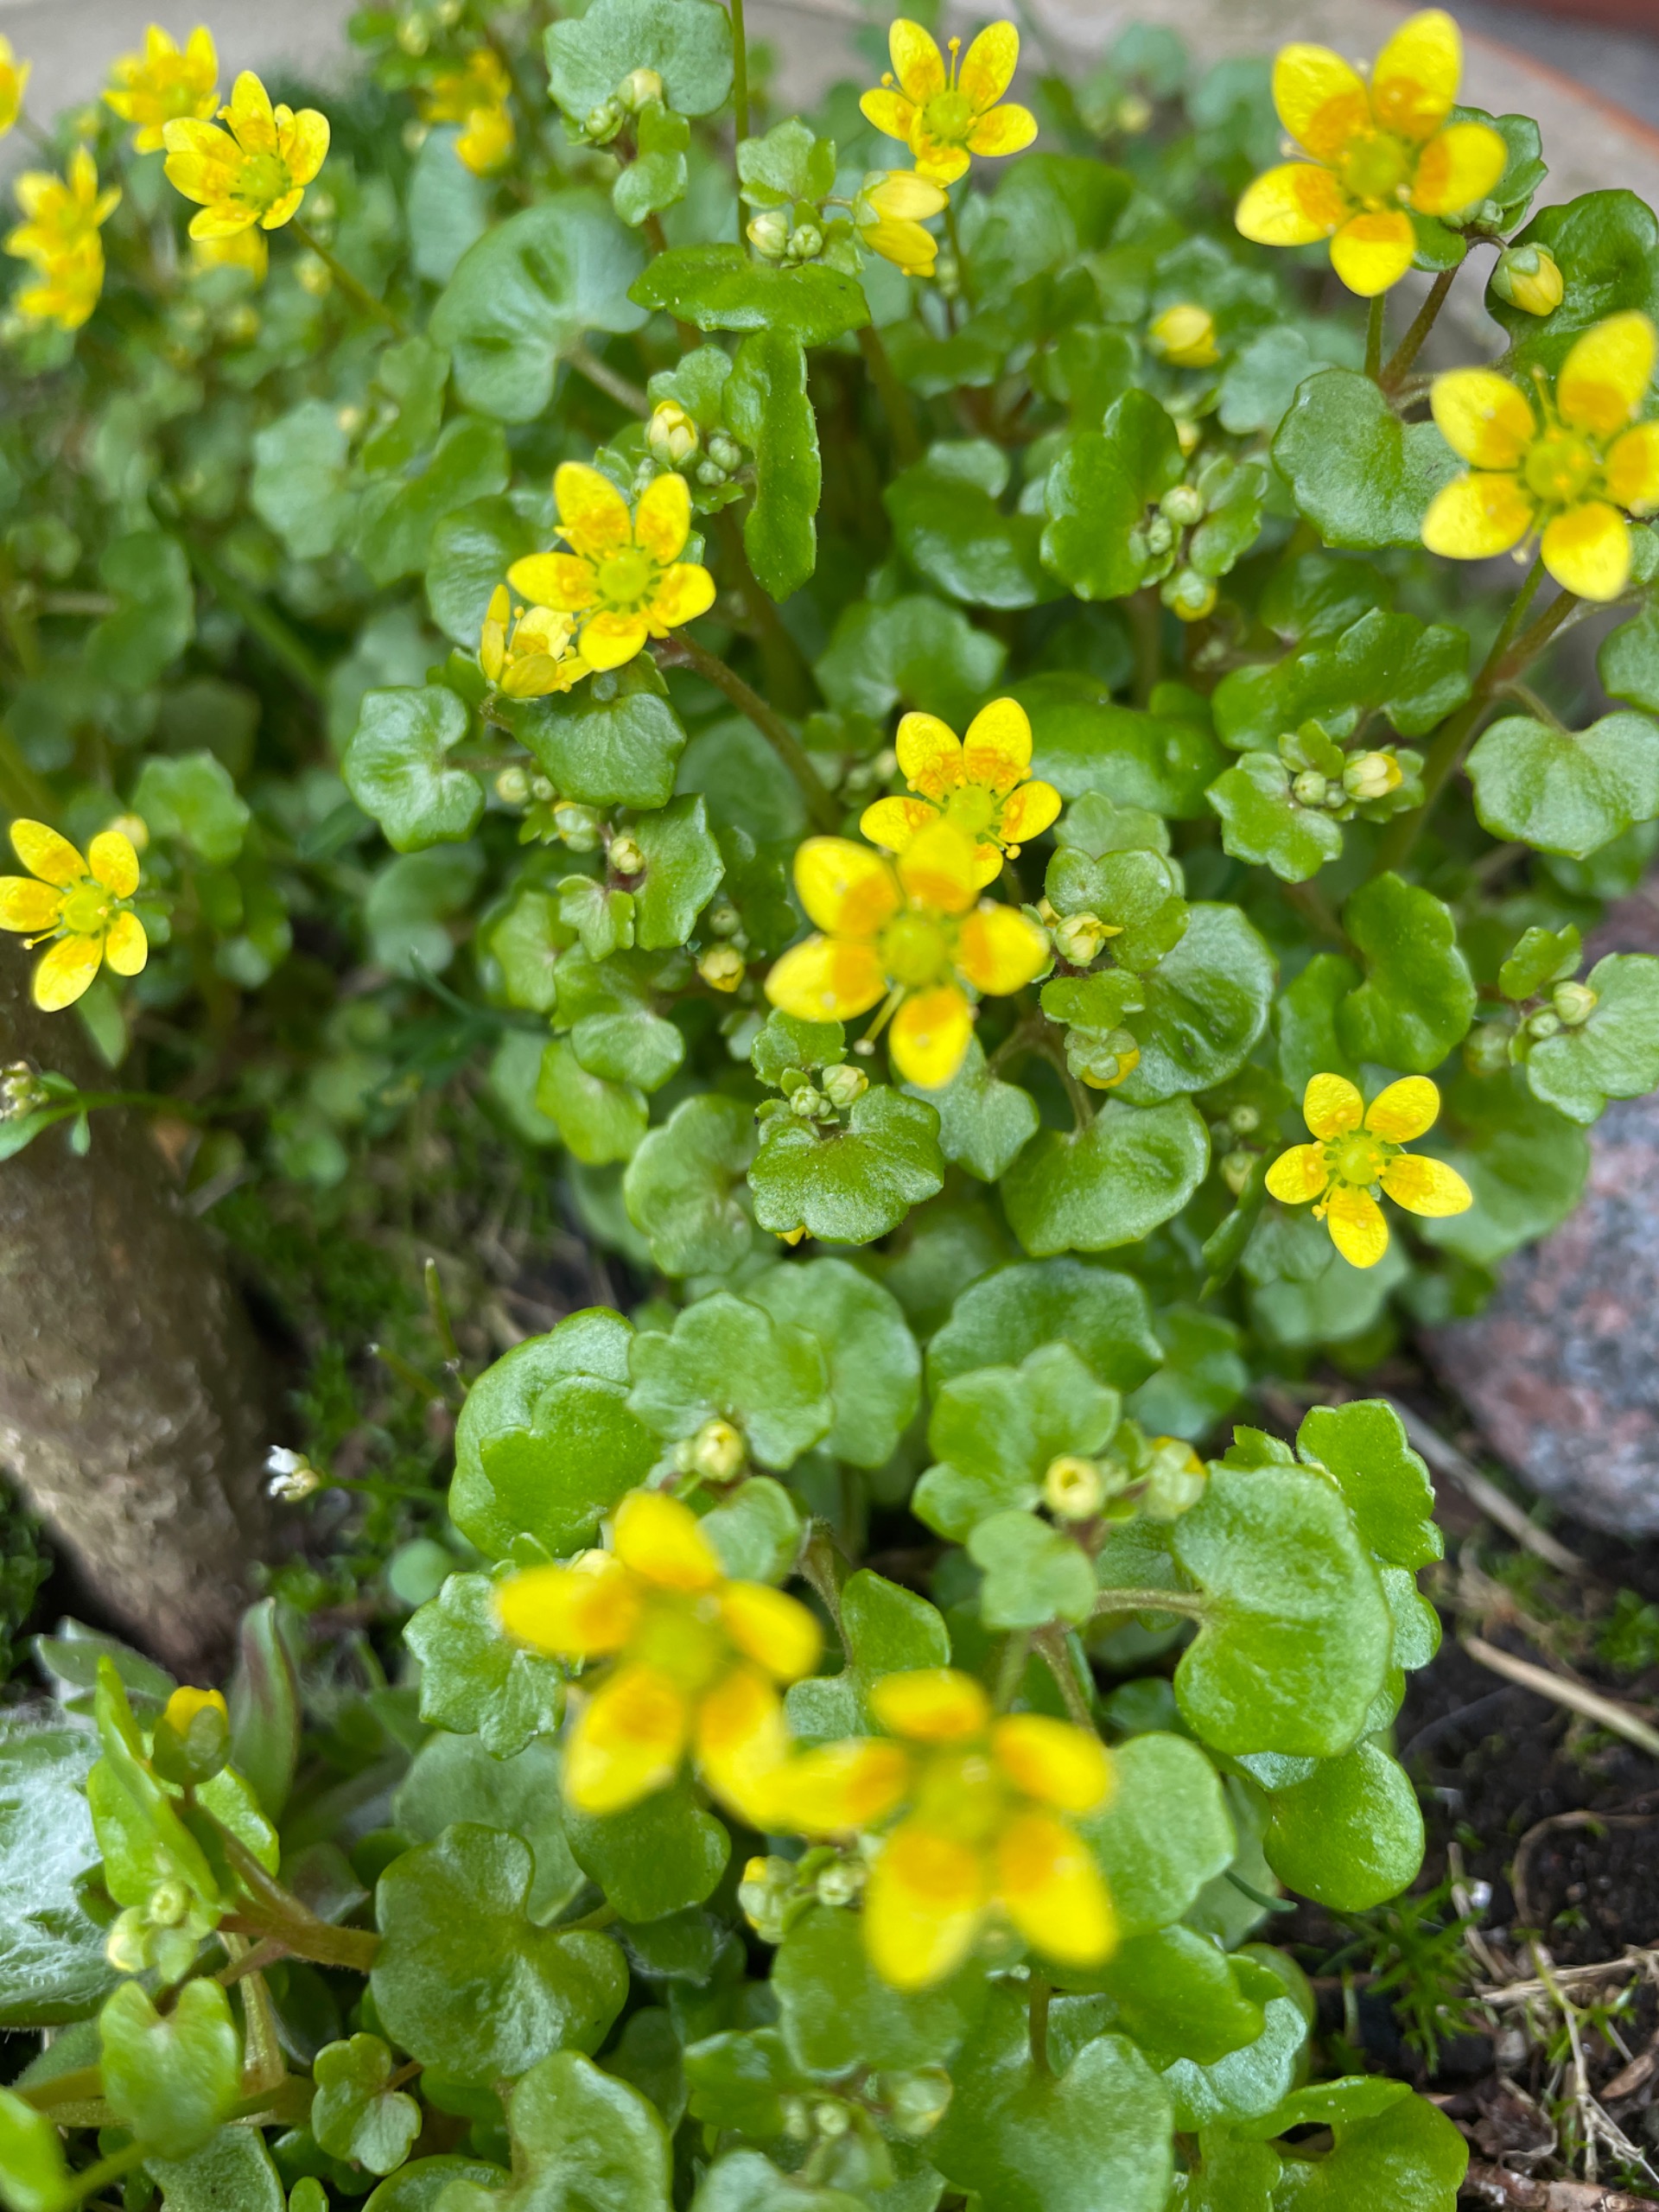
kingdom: Plantae
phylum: Tracheophyta
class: Magnoliopsida
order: Saxifragales
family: Saxifragaceae
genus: Saxifraga
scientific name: Saxifraga cymbalaria
